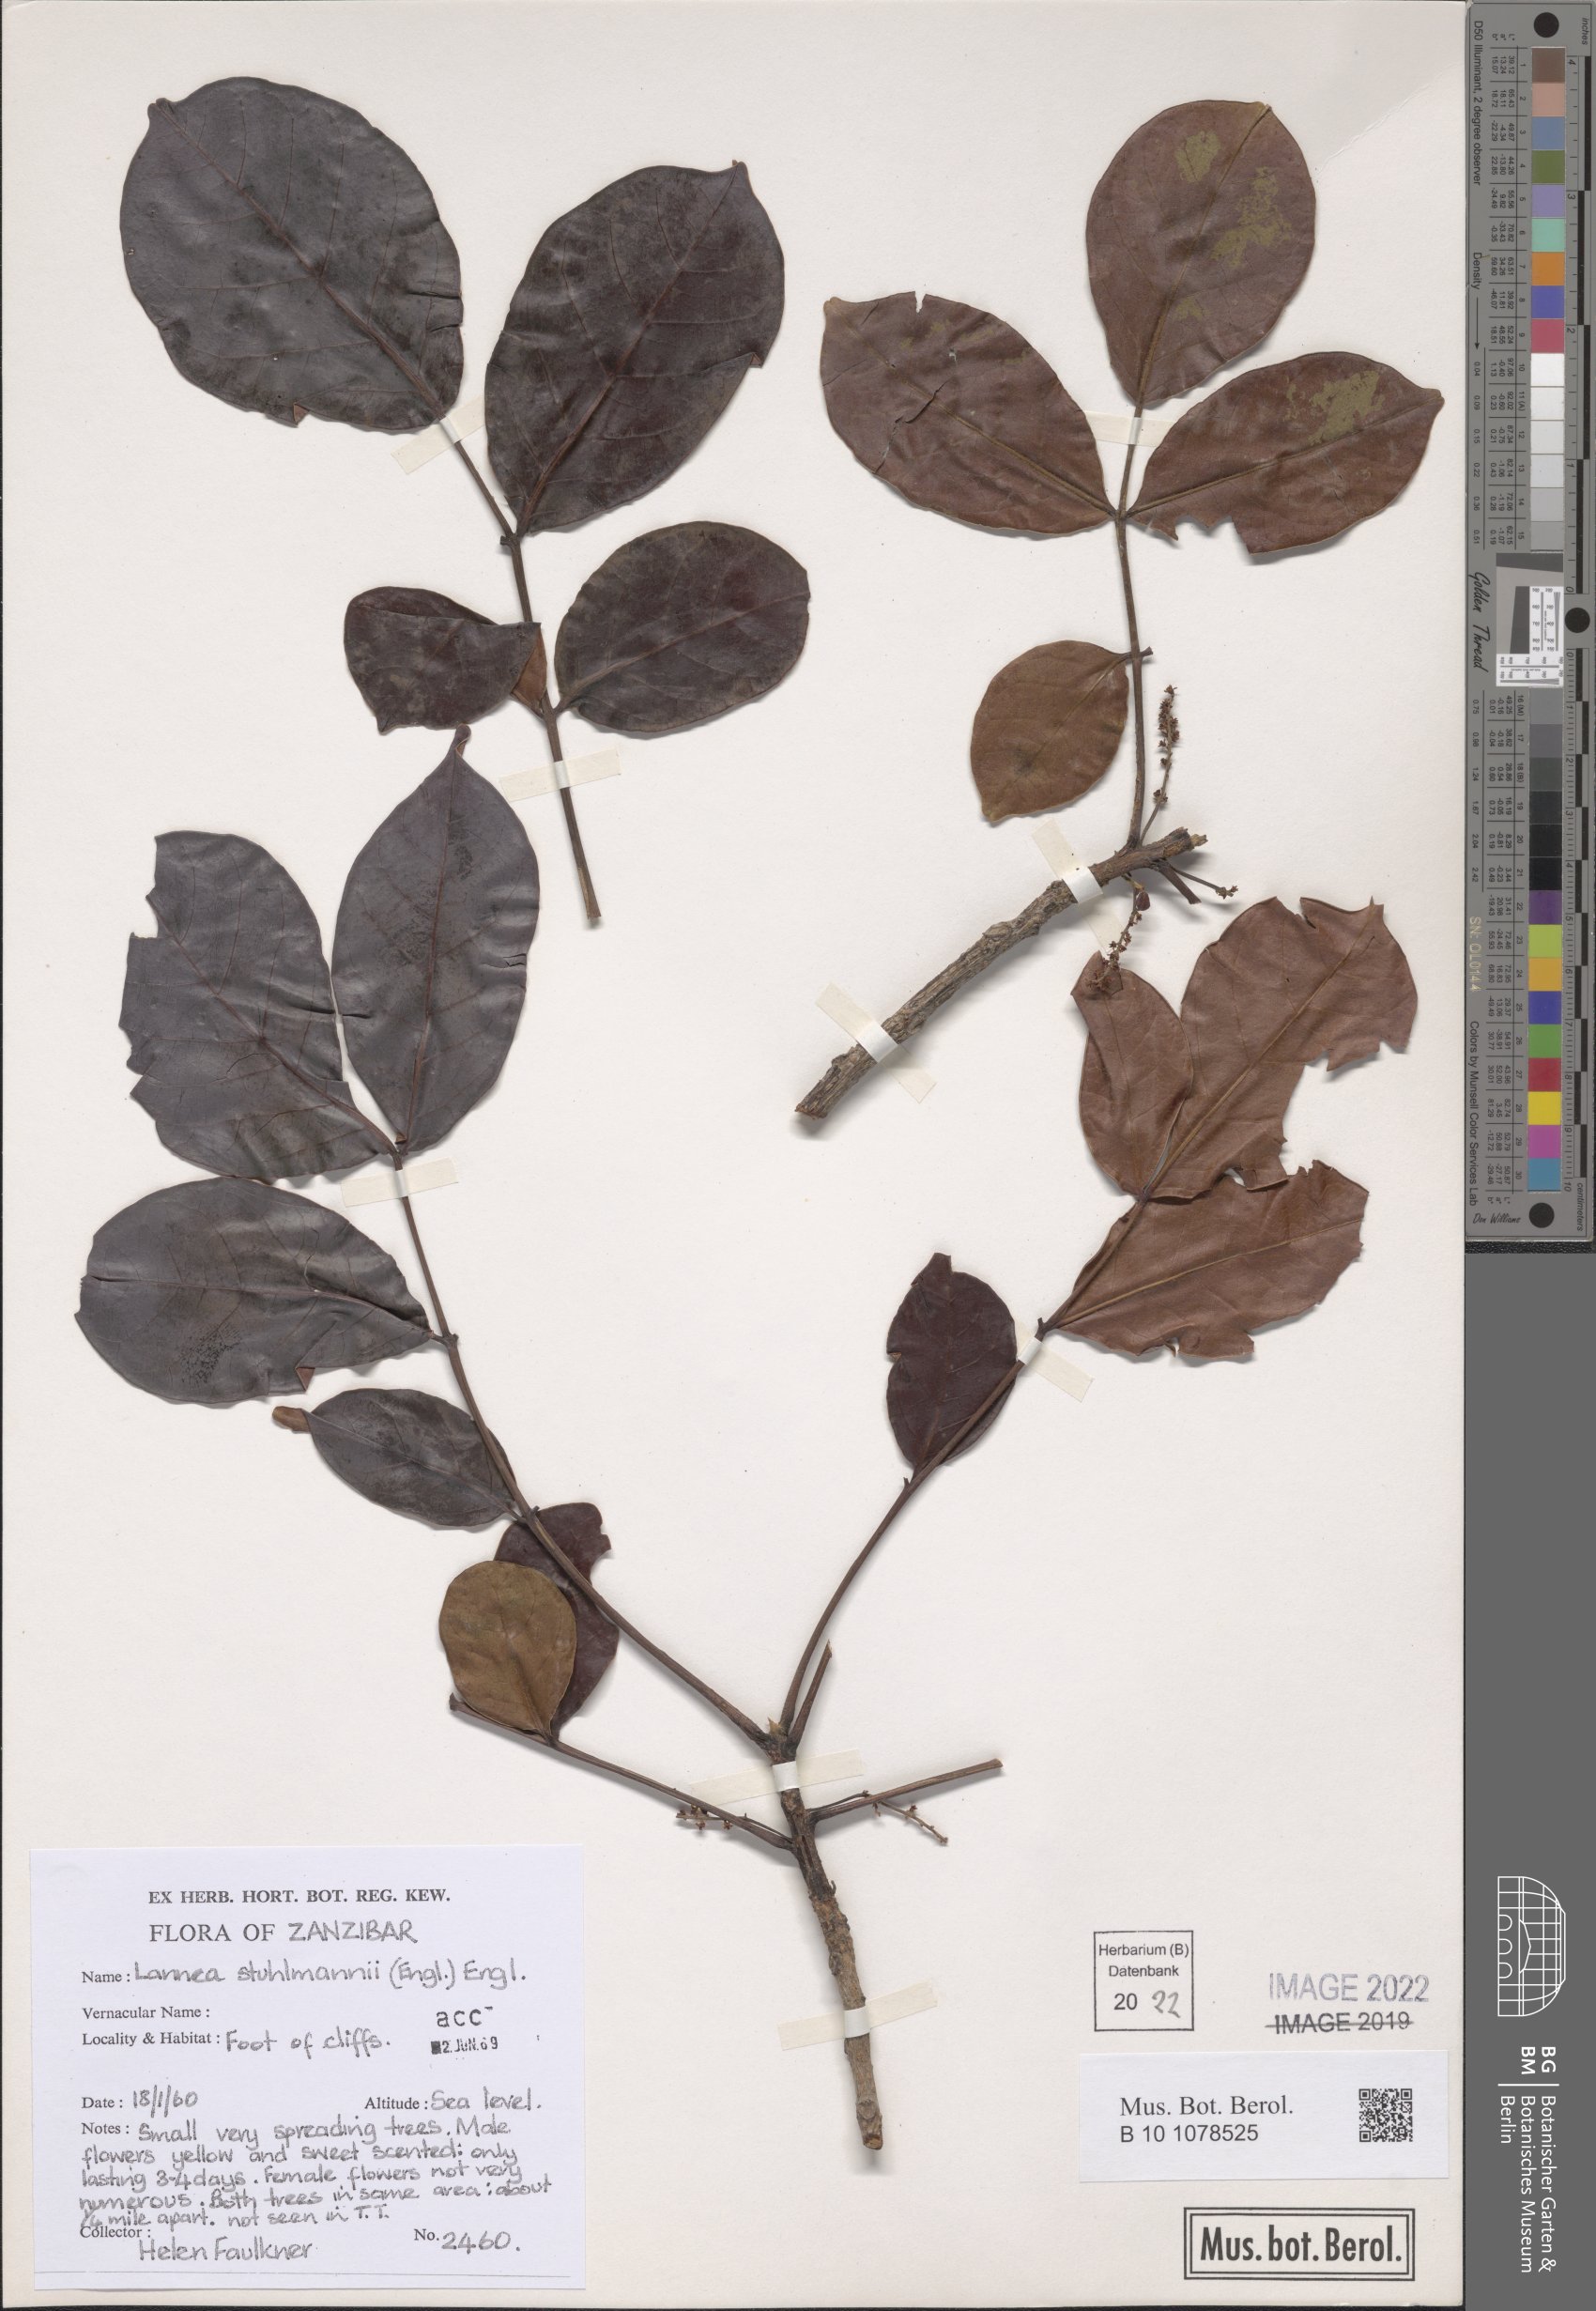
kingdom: Plantae
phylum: Tracheophyta
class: Magnoliopsida
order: Sapindales
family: Anacardiaceae
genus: Lannea
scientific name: Lannea schweinfurthii
